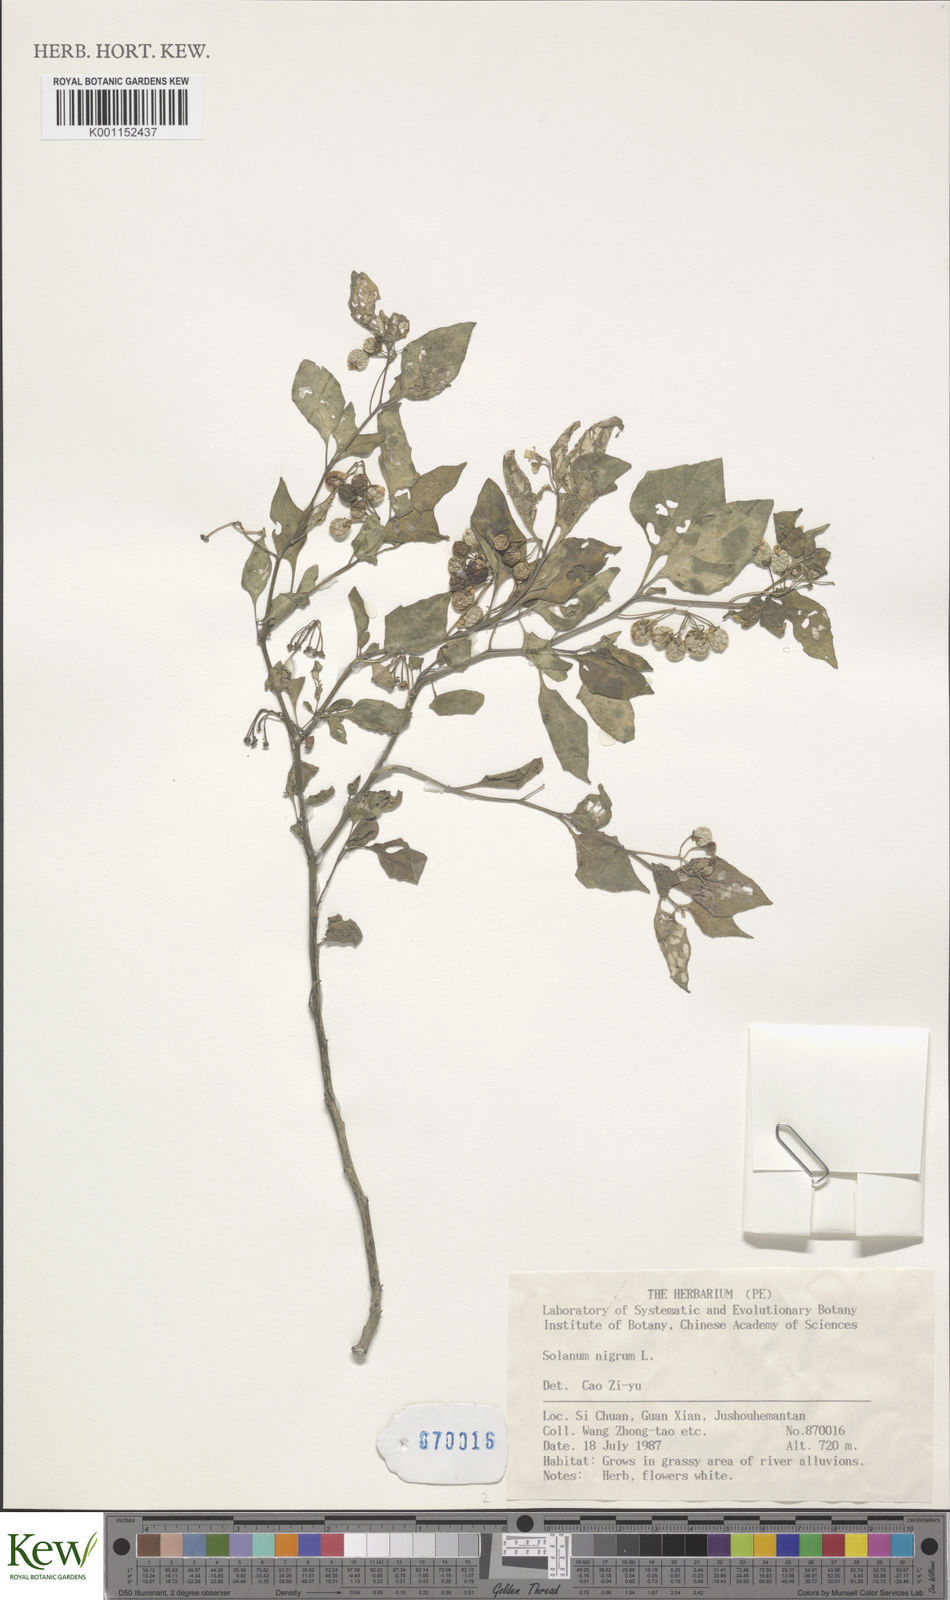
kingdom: Plantae
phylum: Tracheophyta
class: Magnoliopsida
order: Solanales
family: Solanaceae
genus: Solanum
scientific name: Solanum americanum
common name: American black nightshade
